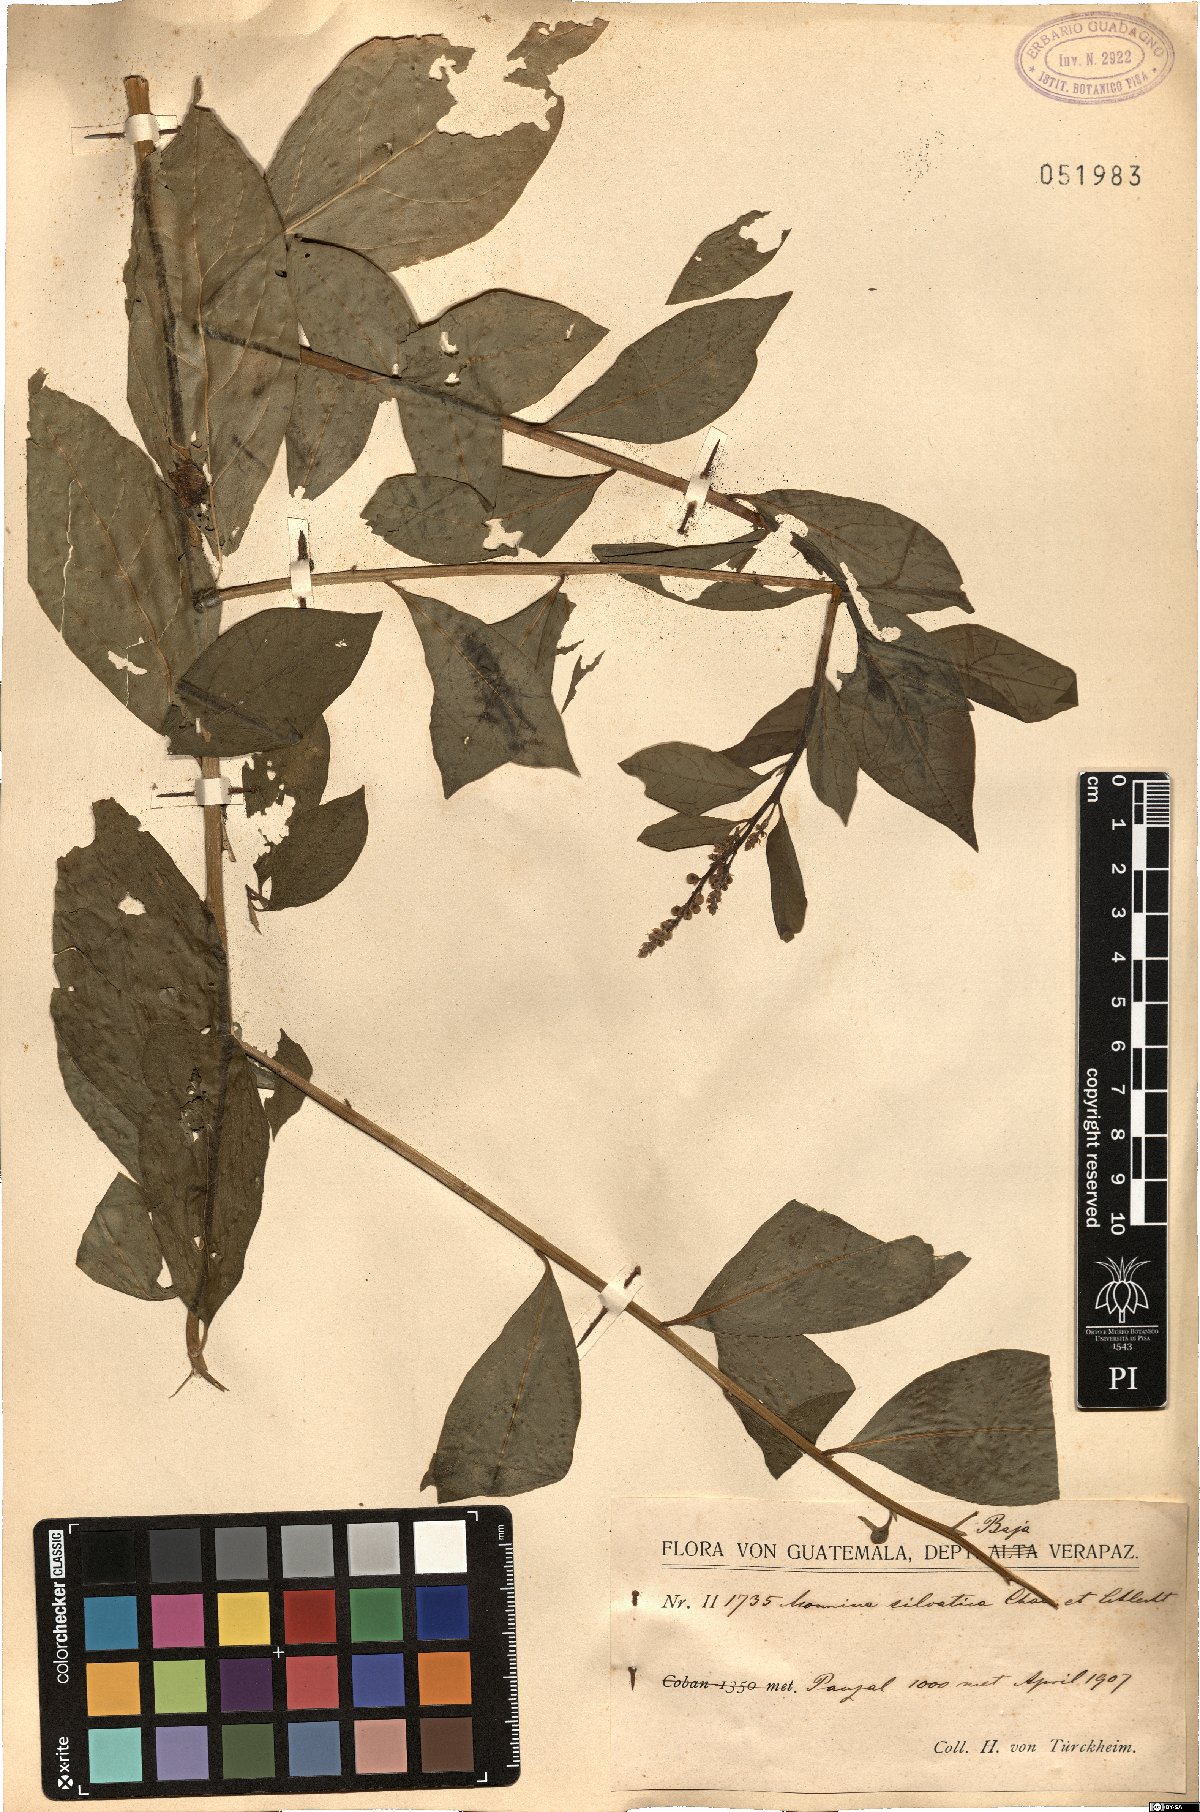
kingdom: Plantae
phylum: Tracheophyta
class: Magnoliopsida
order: Fabales
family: Polygalaceae
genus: Monnina
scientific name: Monnina sylvatica
